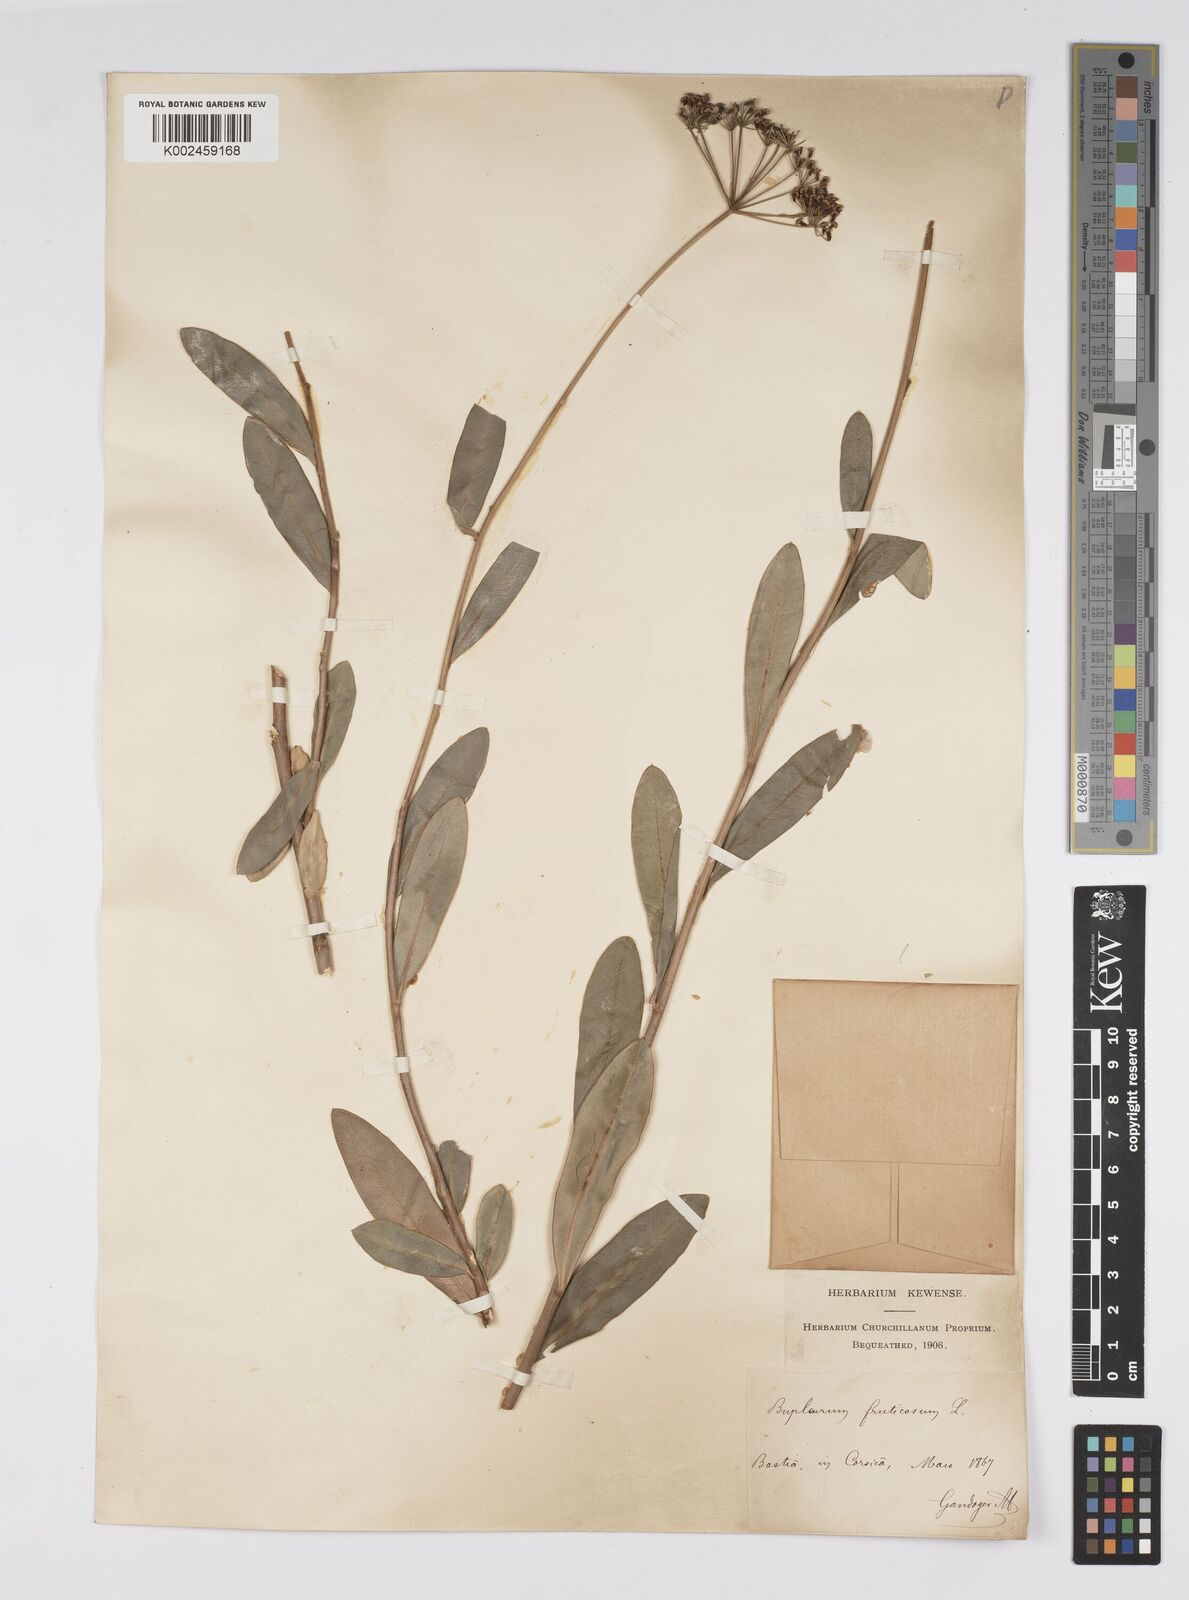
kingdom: Plantae
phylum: Tracheophyta
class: Magnoliopsida
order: Apiales
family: Apiaceae
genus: Bupleurum
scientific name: Bupleurum fruticosum
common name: Shrubby hare's-ear
